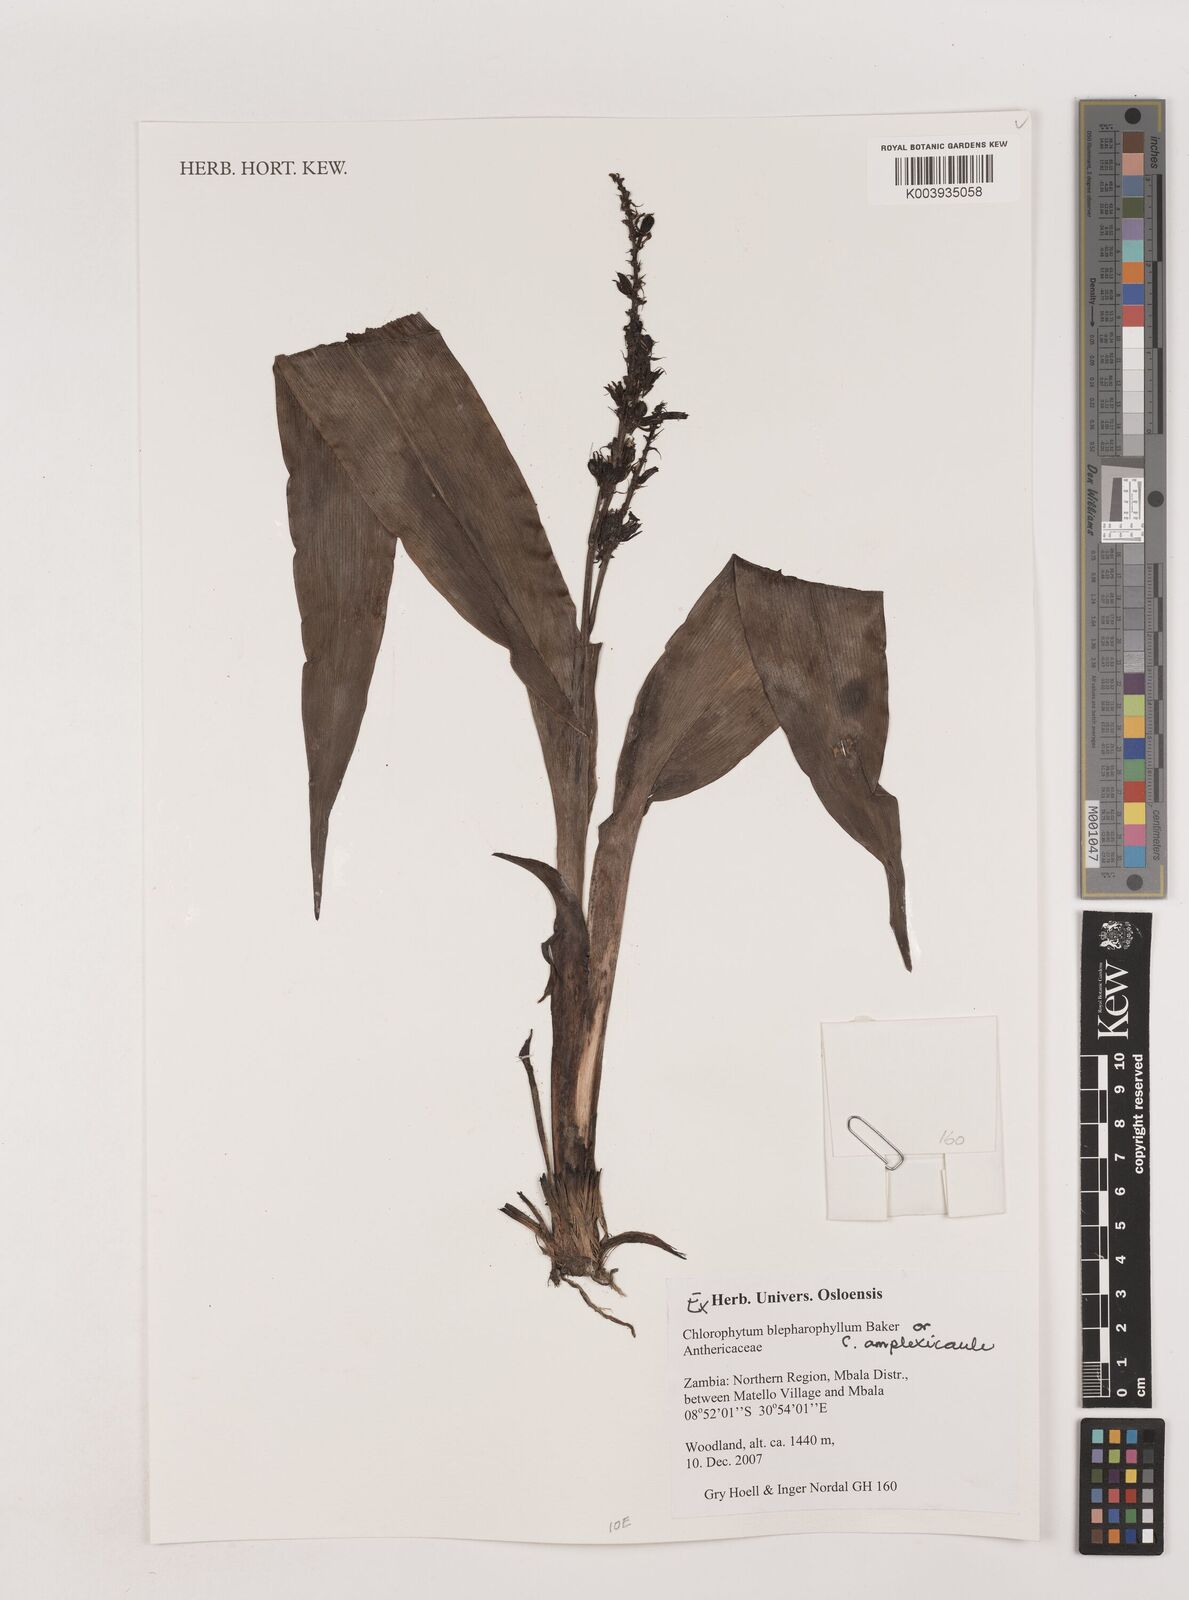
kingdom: Plantae
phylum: Tracheophyta
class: Liliopsida
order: Asparagales
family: Asparagaceae
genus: Chlorophytum
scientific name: Chlorophytum blepharophyllum
